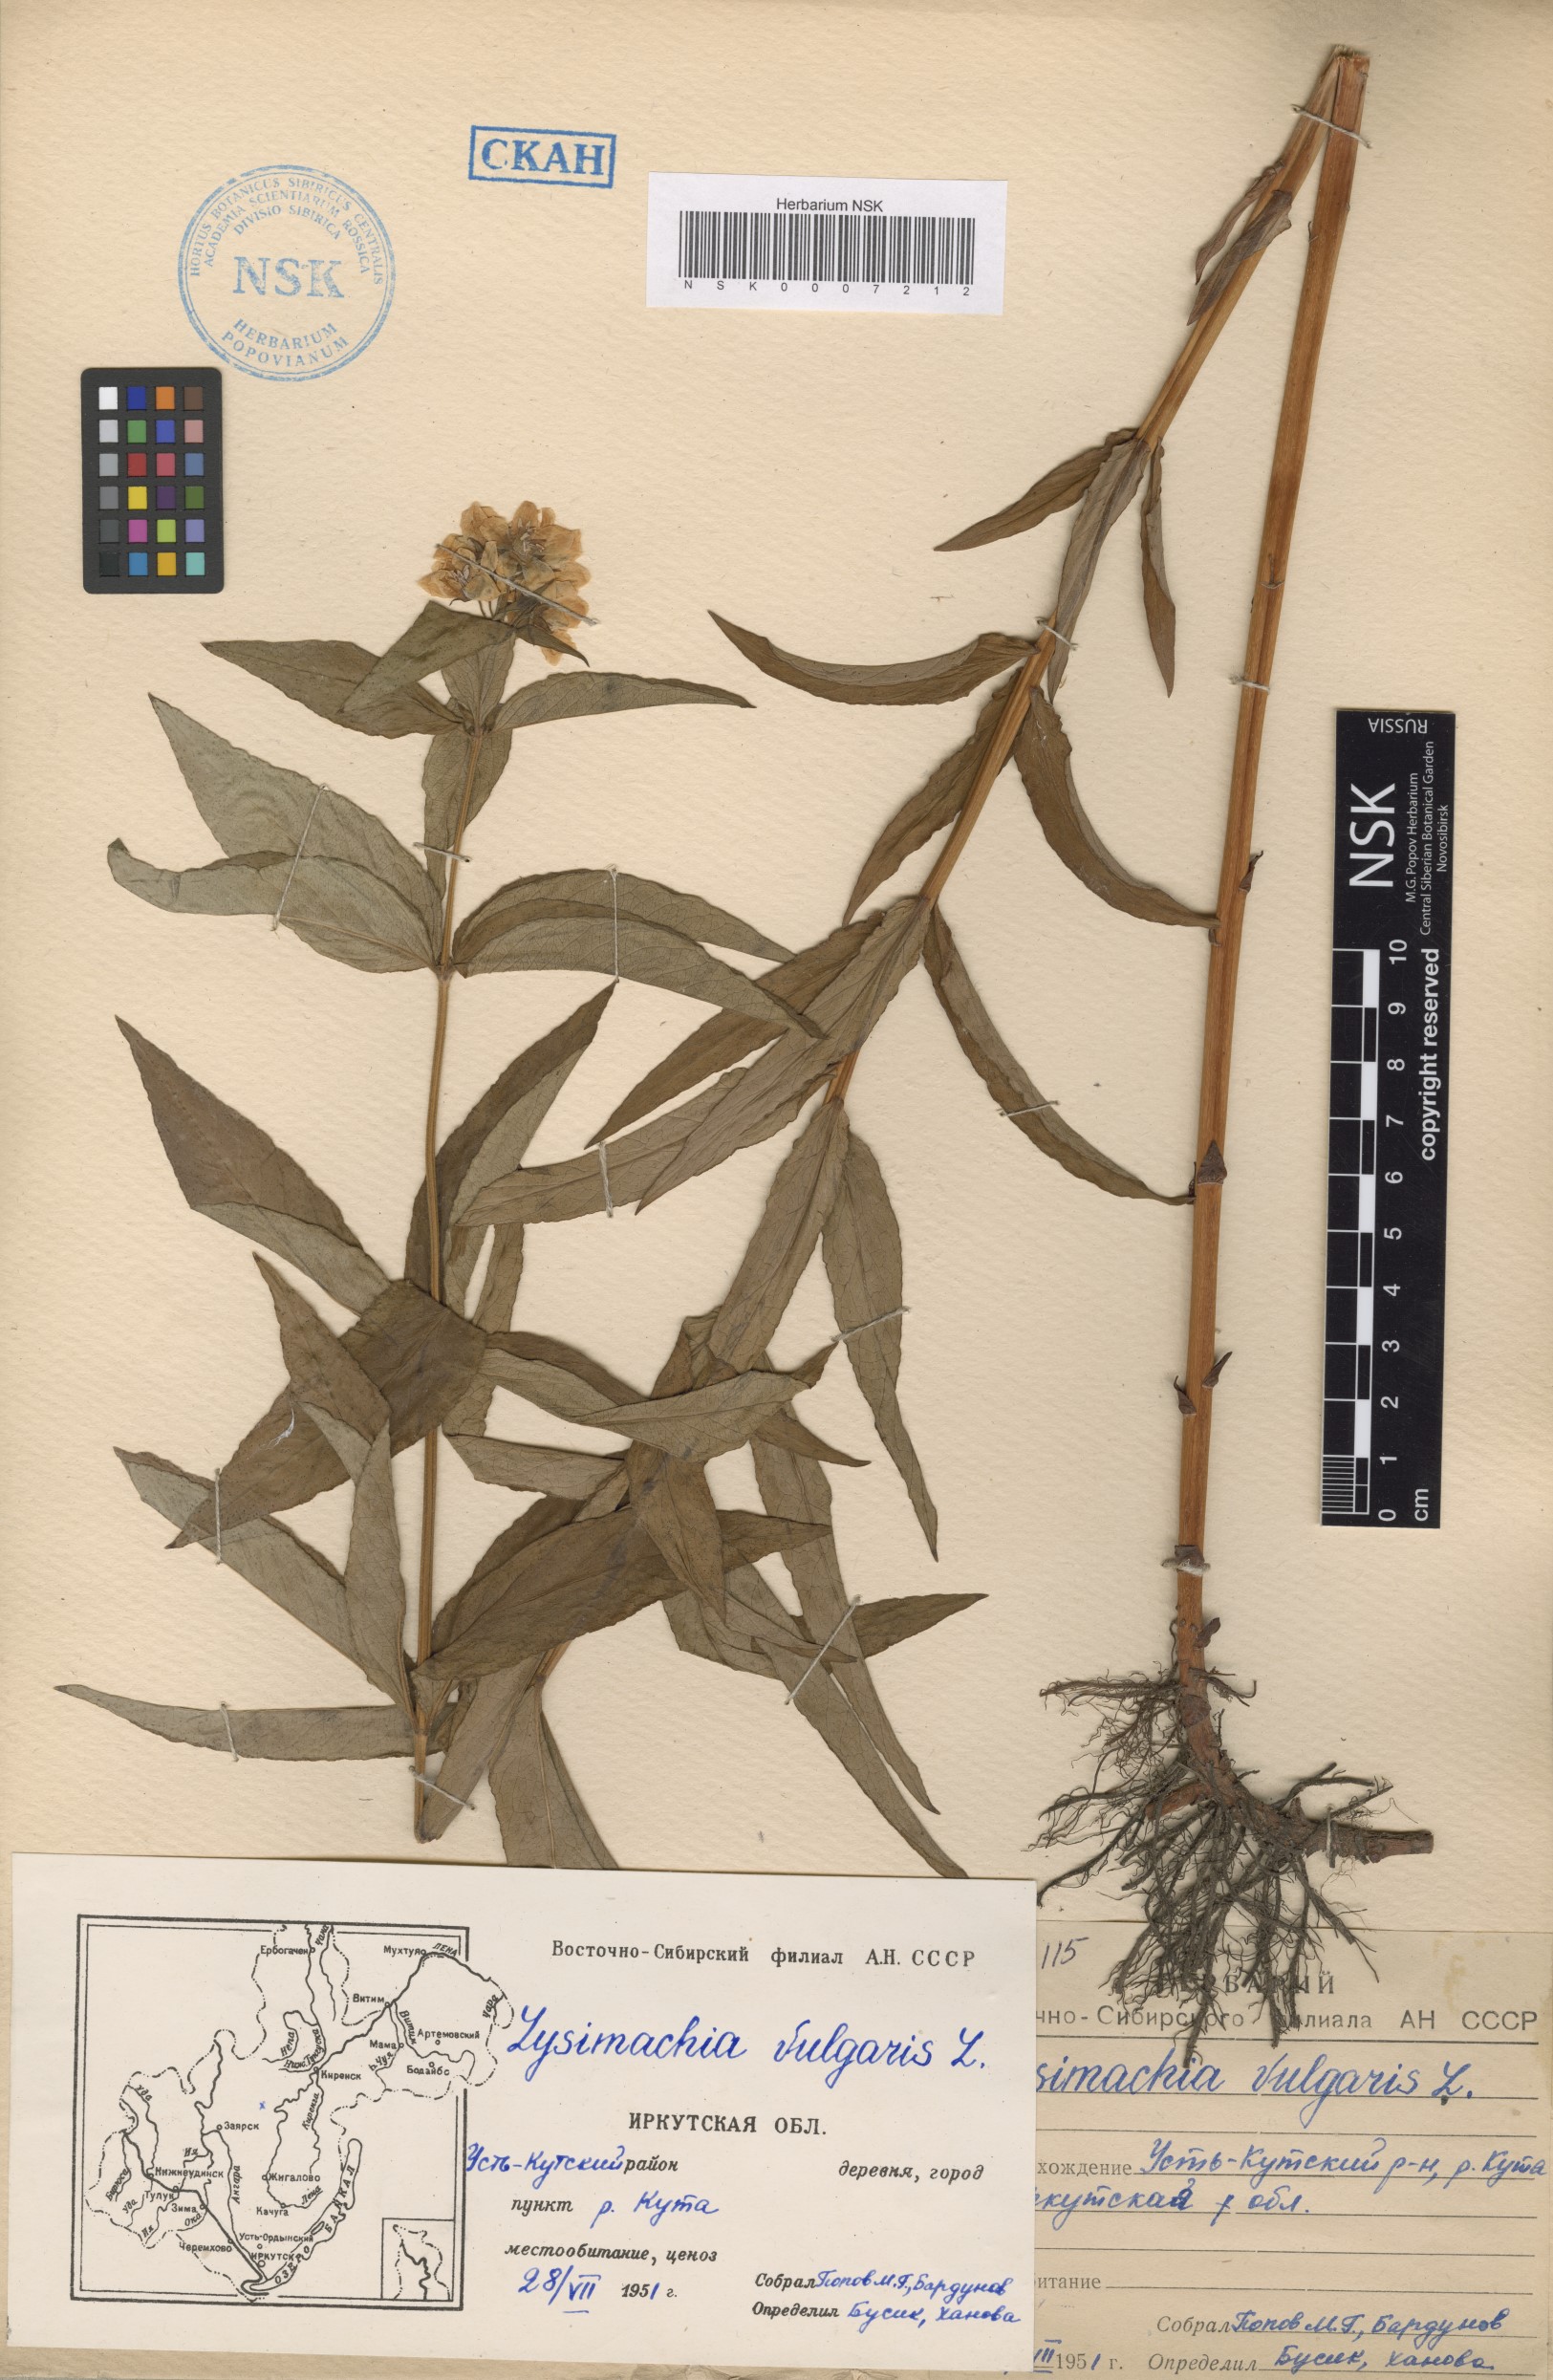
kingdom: Plantae
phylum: Tracheophyta
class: Magnoliopsida
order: Ericales
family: Primulaceae
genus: Lysimachia
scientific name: Lysimachia vulgaris
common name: Yellow loosestrife
